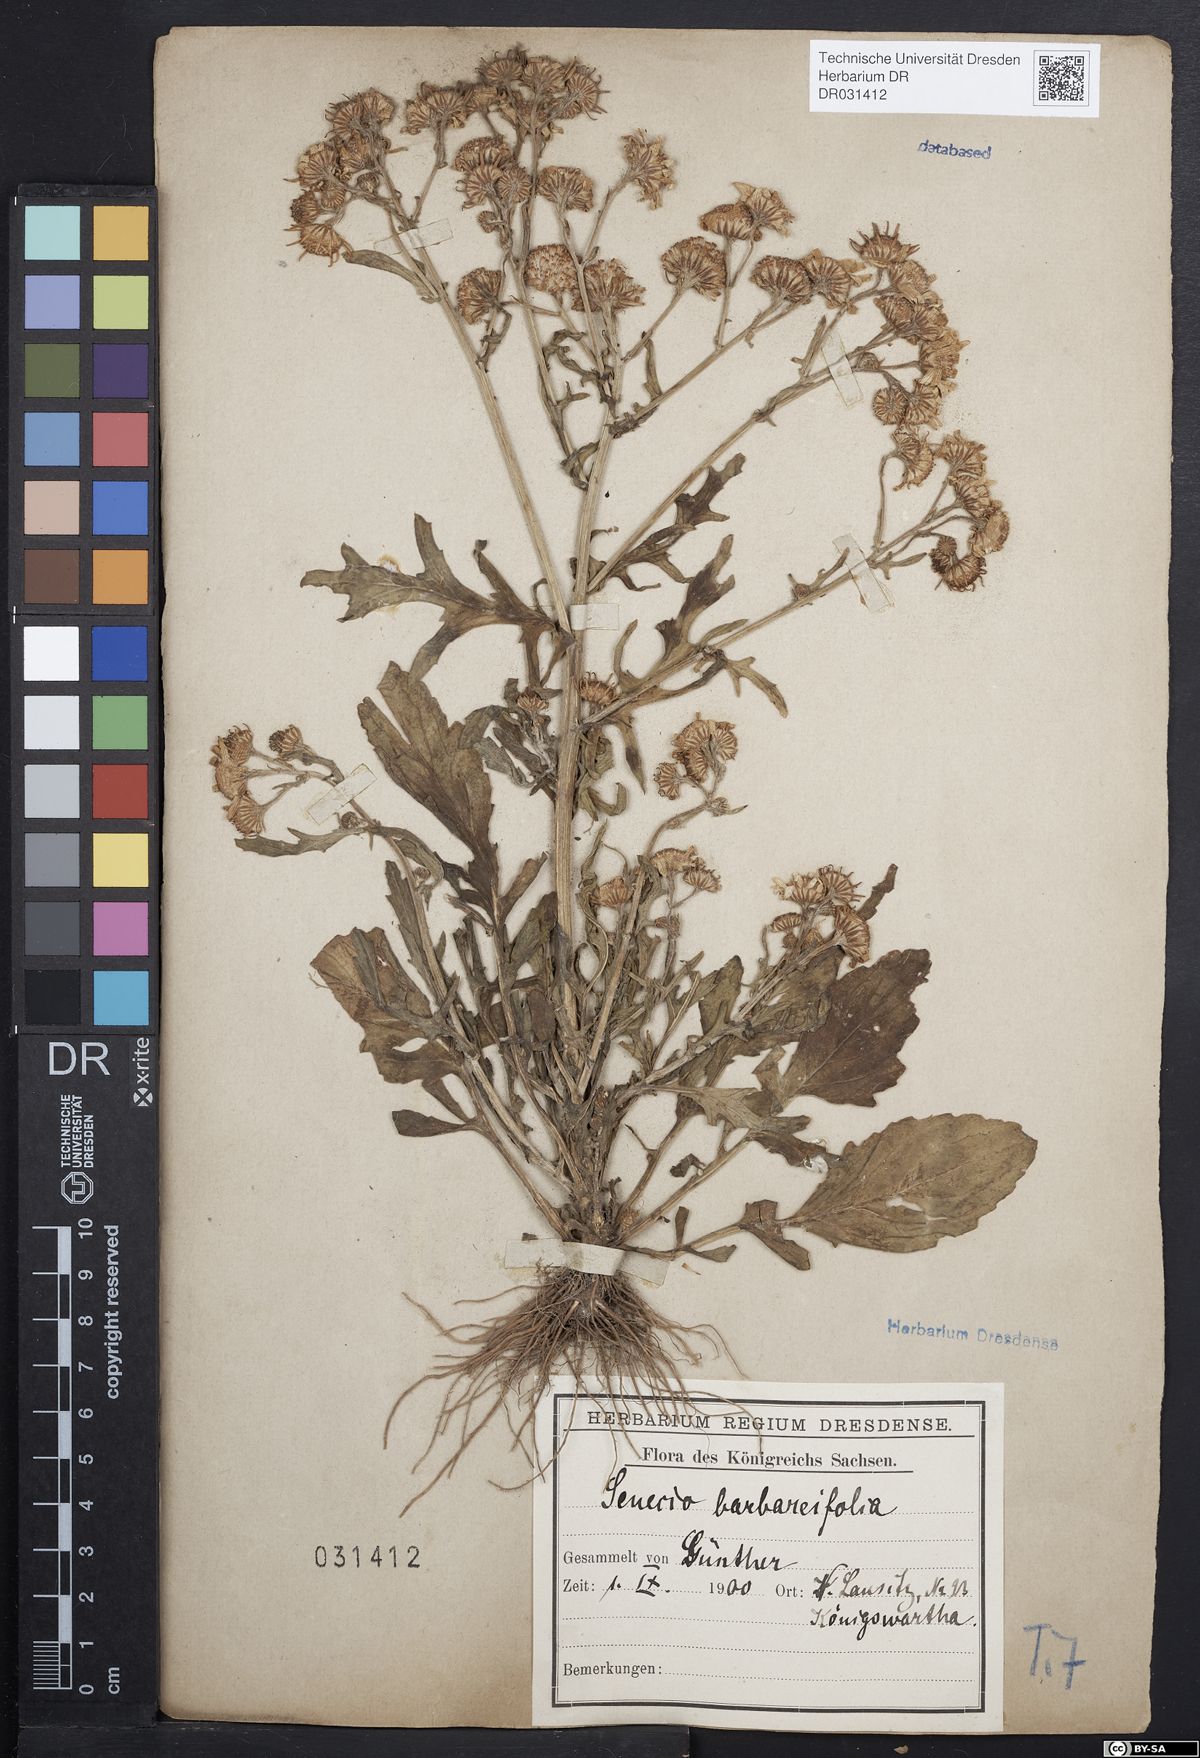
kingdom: Plantae
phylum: Tracheophyta
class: Magnoliopsida
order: Asterales
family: Asteraceae
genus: Jacobaea
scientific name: Jacobaea aquatica
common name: Water ragwort
